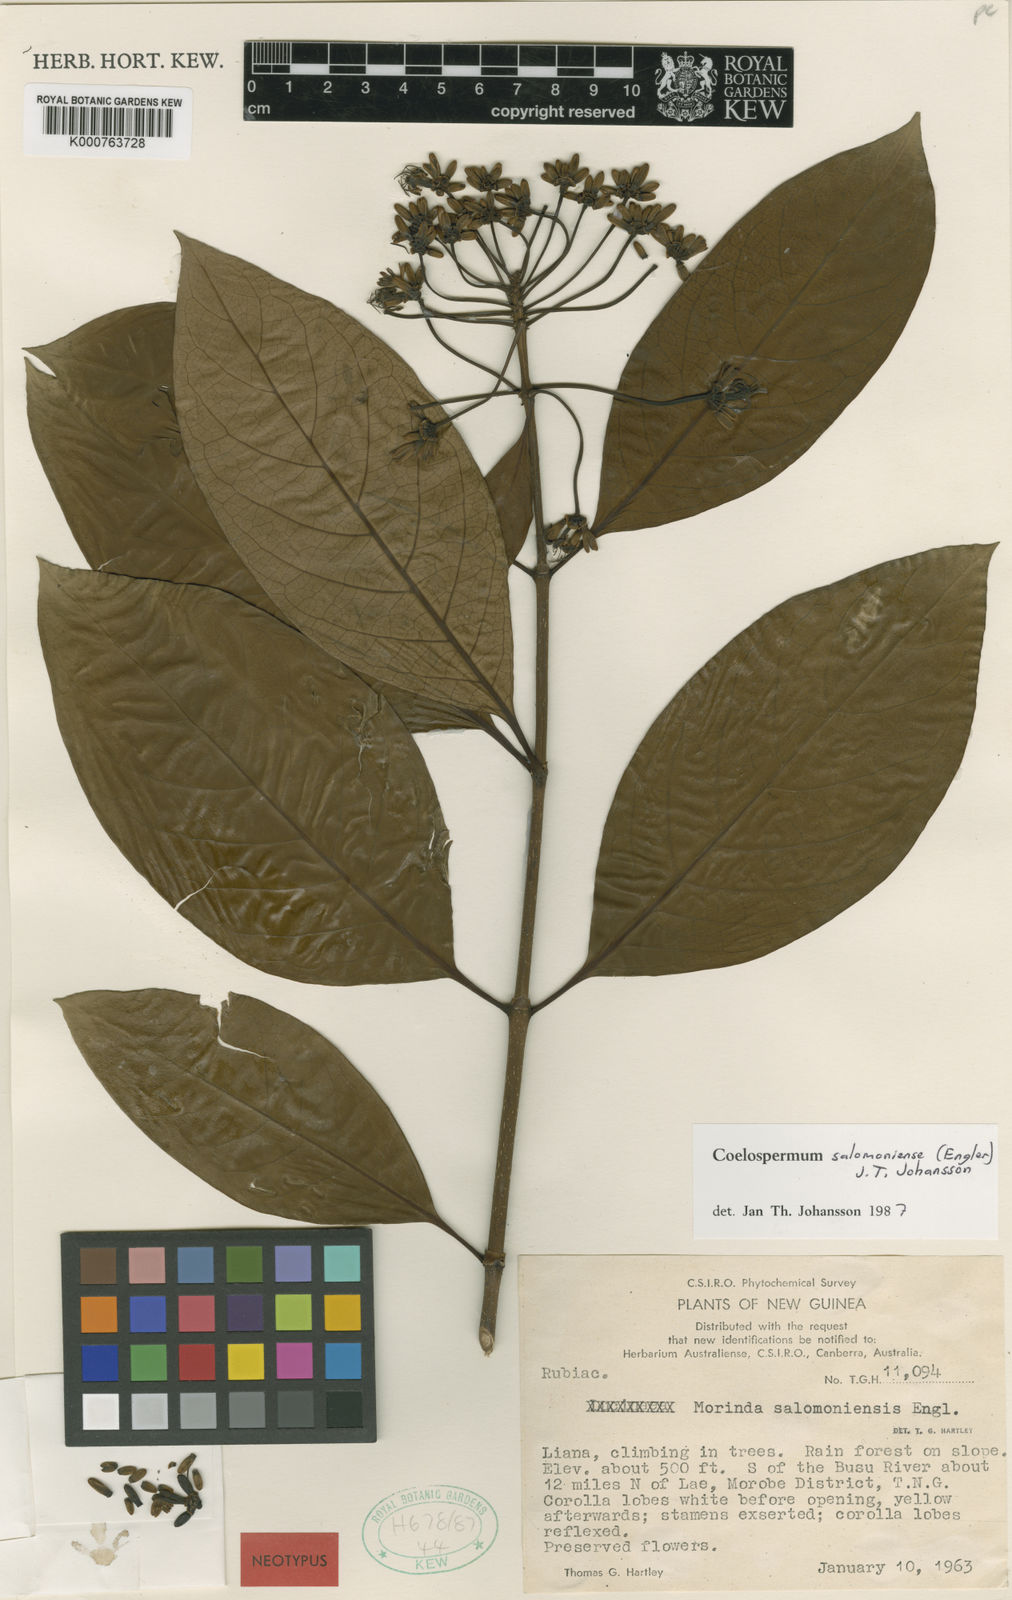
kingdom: Plantae
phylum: Tracheophyta
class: Magnoliopsida
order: Gentianales
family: Rubiaceae
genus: Coelospermum
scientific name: Coelospermum salomoniense
